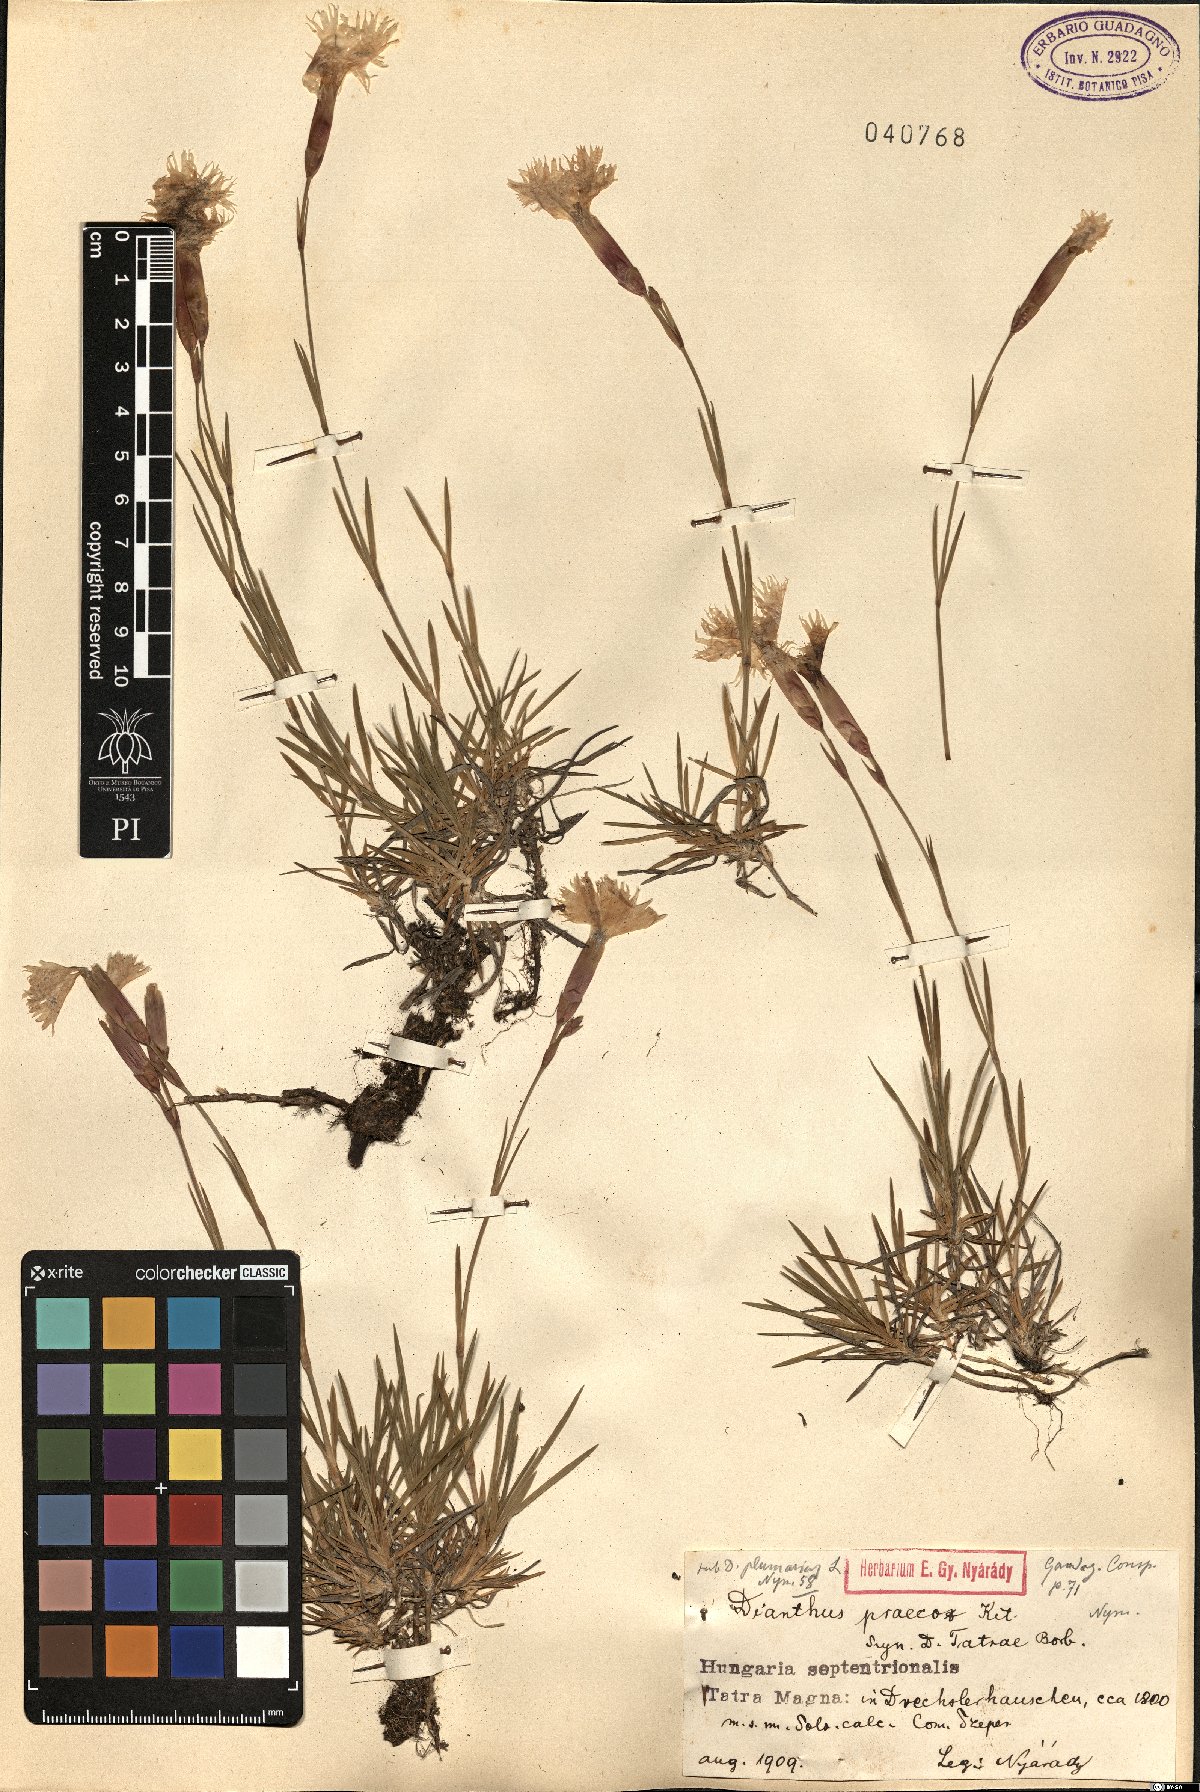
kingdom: Plantae
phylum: Tracheophyta
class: Magnoliopsida
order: Caryophyllales
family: Caryophyllaceae
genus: Dianthus
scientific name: Dianthus praecox
